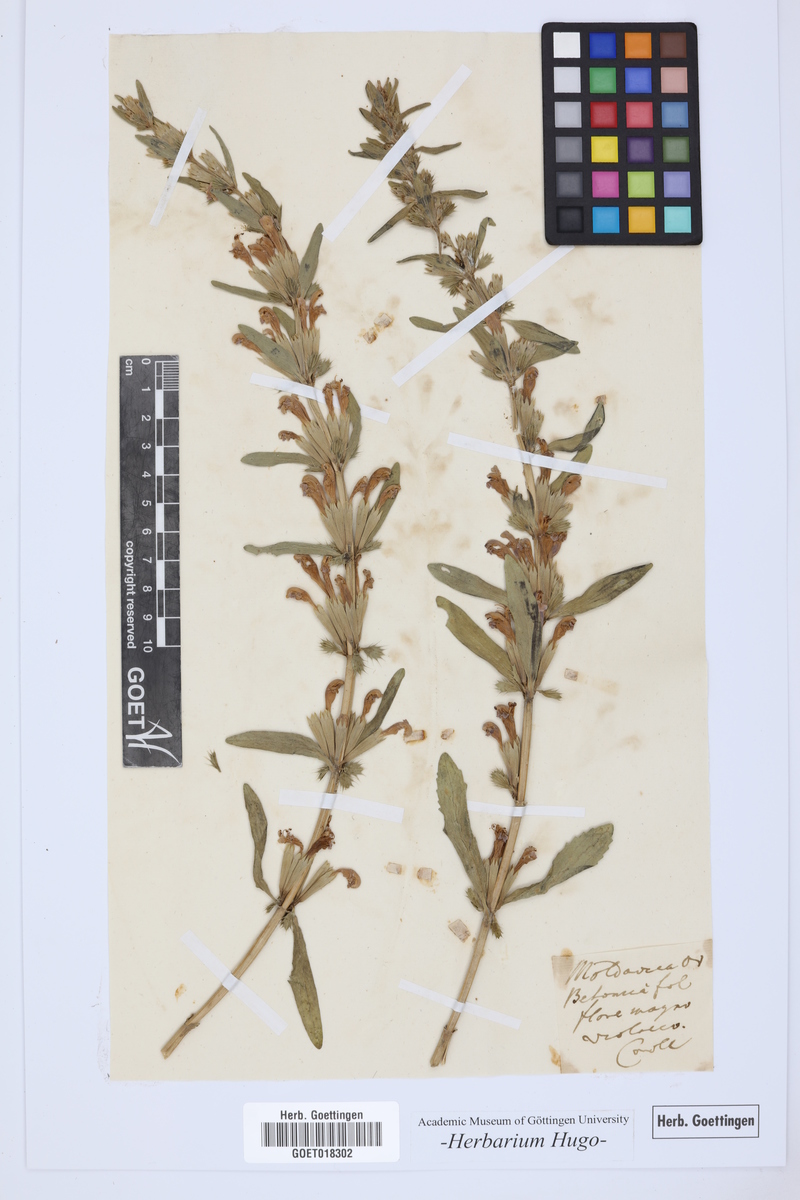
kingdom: Plantae
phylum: Tracheophyta
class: Magnoliopsida
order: Lamiales
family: Lamiaceae
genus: Lallemantia
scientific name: Lallemantia canescens
